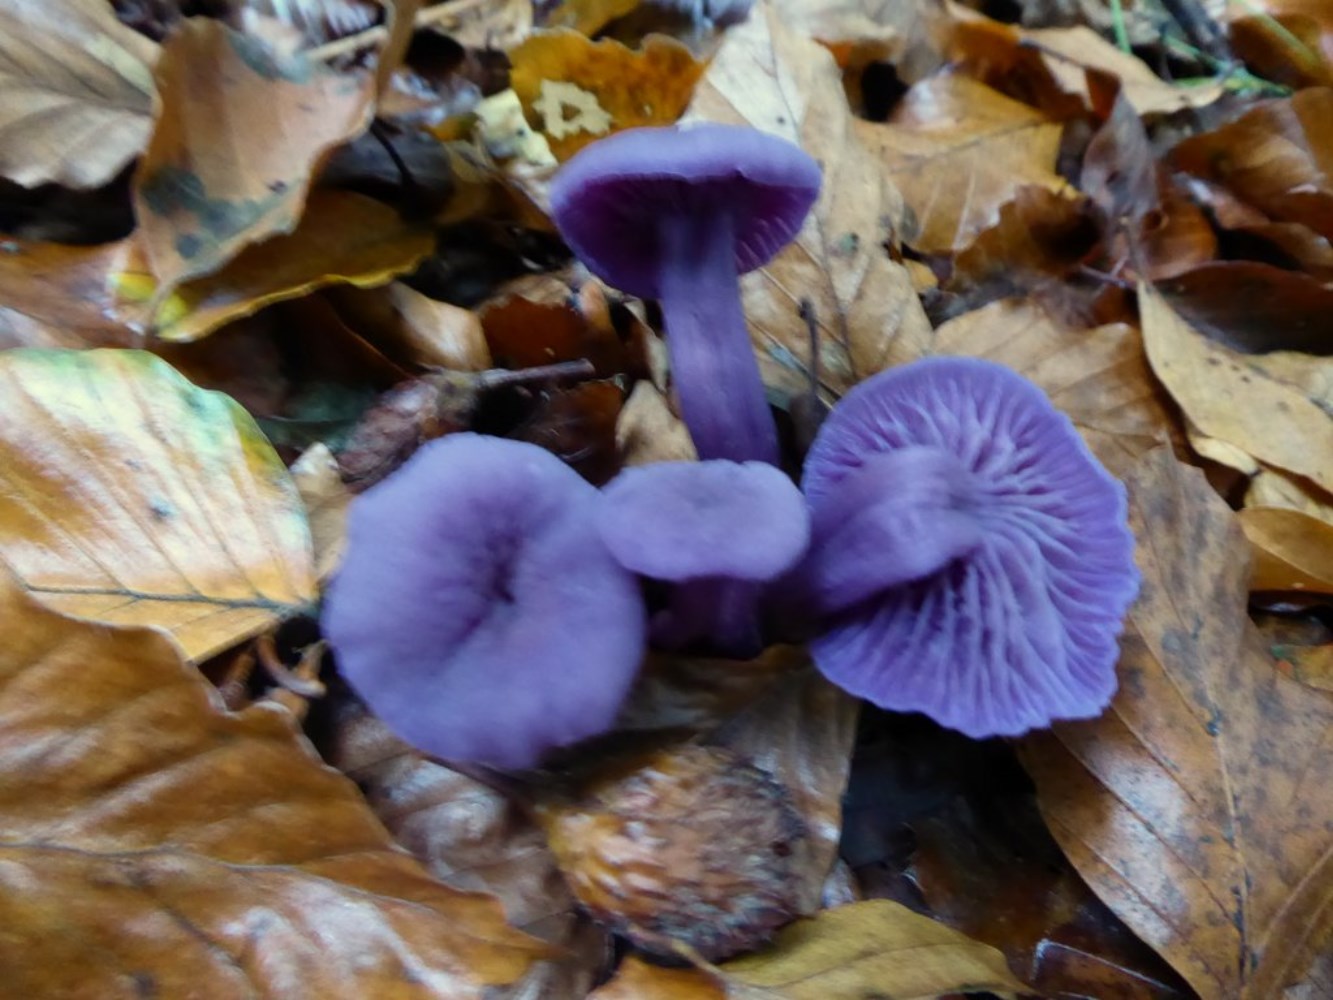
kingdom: Fungi
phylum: Basidiomycota
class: Agaricomycetes
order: Agaricales
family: Hydnangiaceae
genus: Laccaria
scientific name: Laccaria amethystina
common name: violet ametysthat
